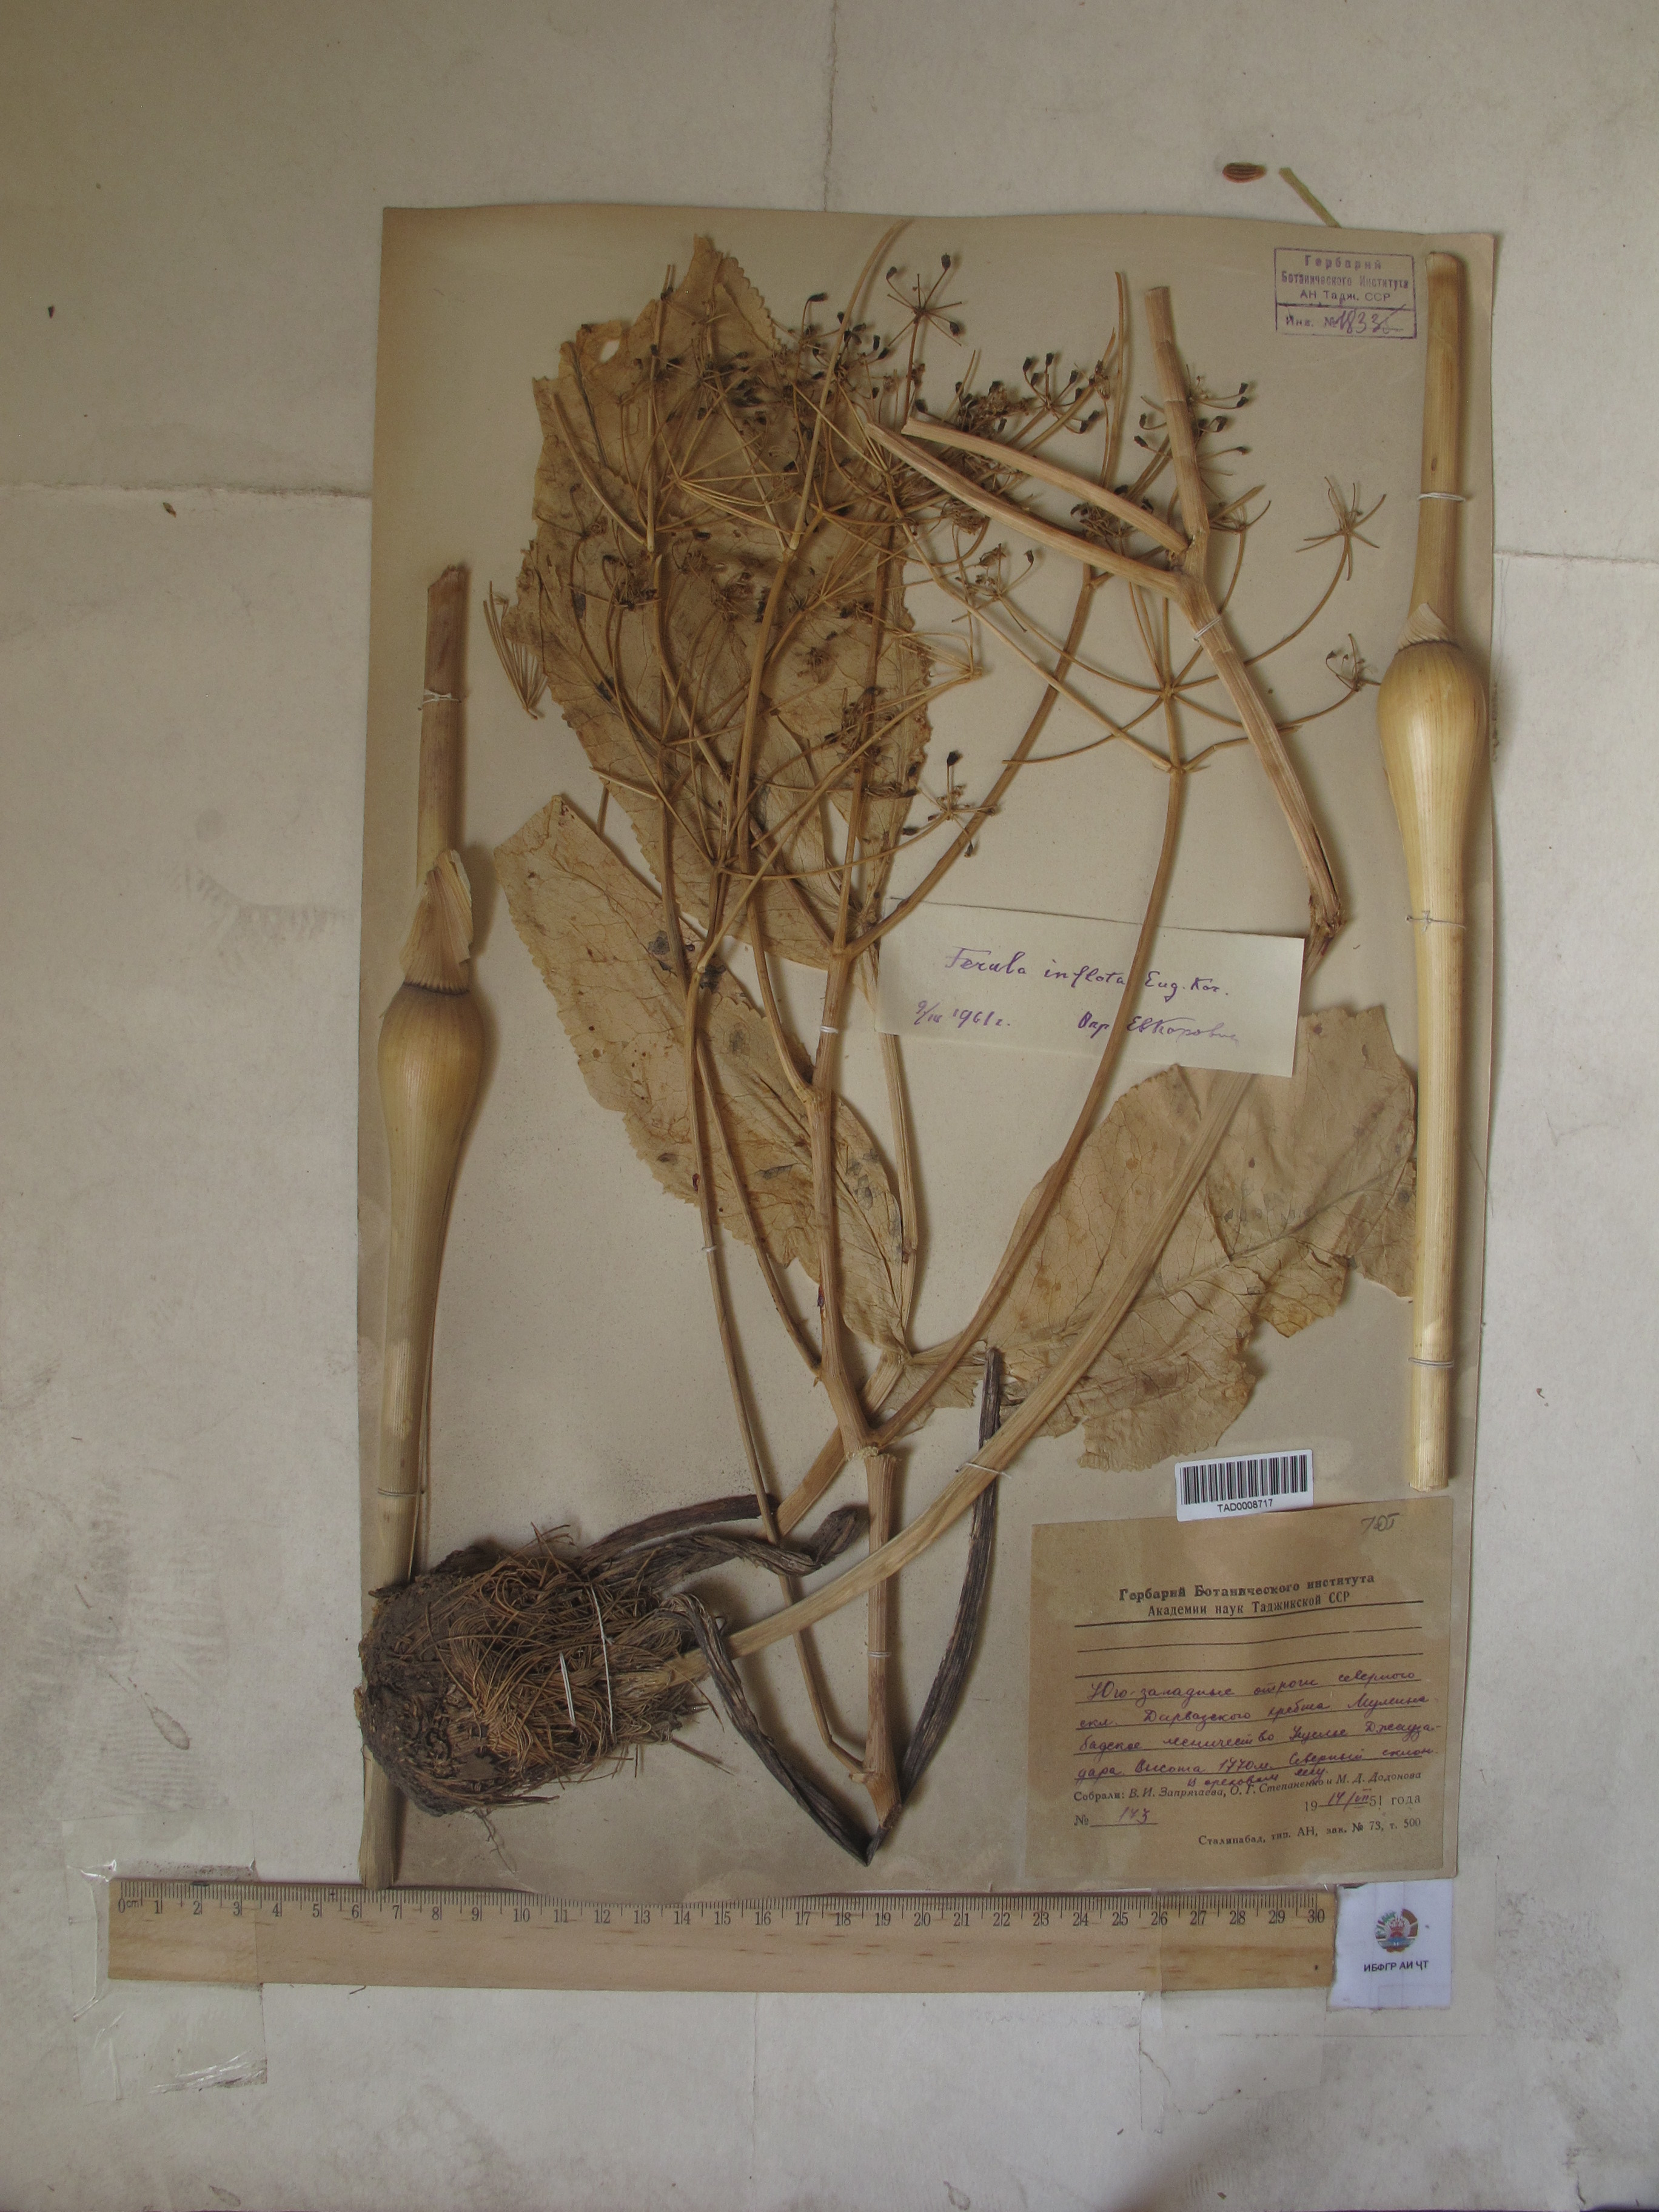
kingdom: Plantae
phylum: Tracheophyta
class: Magnoliopsida
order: Apiales
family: Apiaceae
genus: Ferula
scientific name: Ferula gigantea
